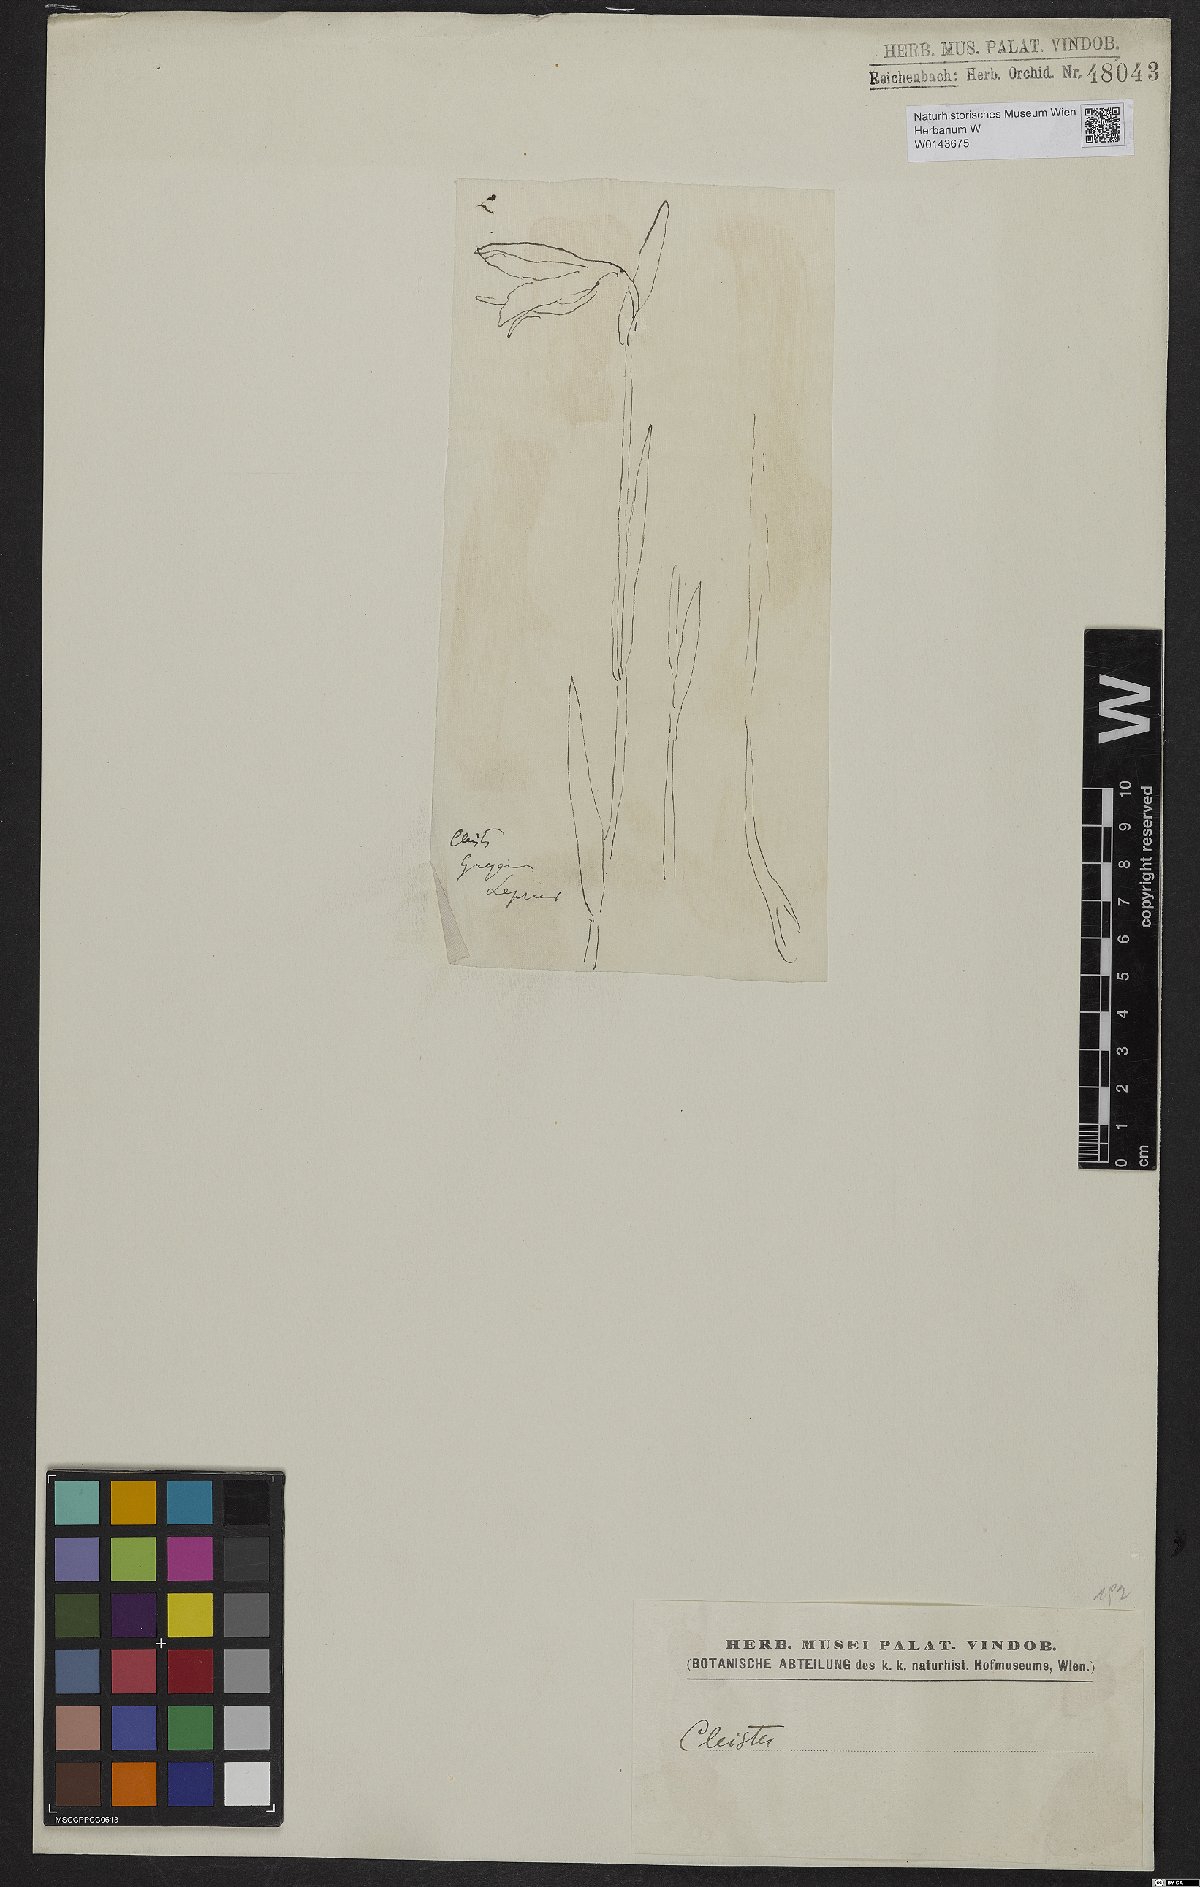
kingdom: Plantae
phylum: Tracheophyta
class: Liliopsida
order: Asparagales
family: Orchidaceae
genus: Cleistes
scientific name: Cleistes
